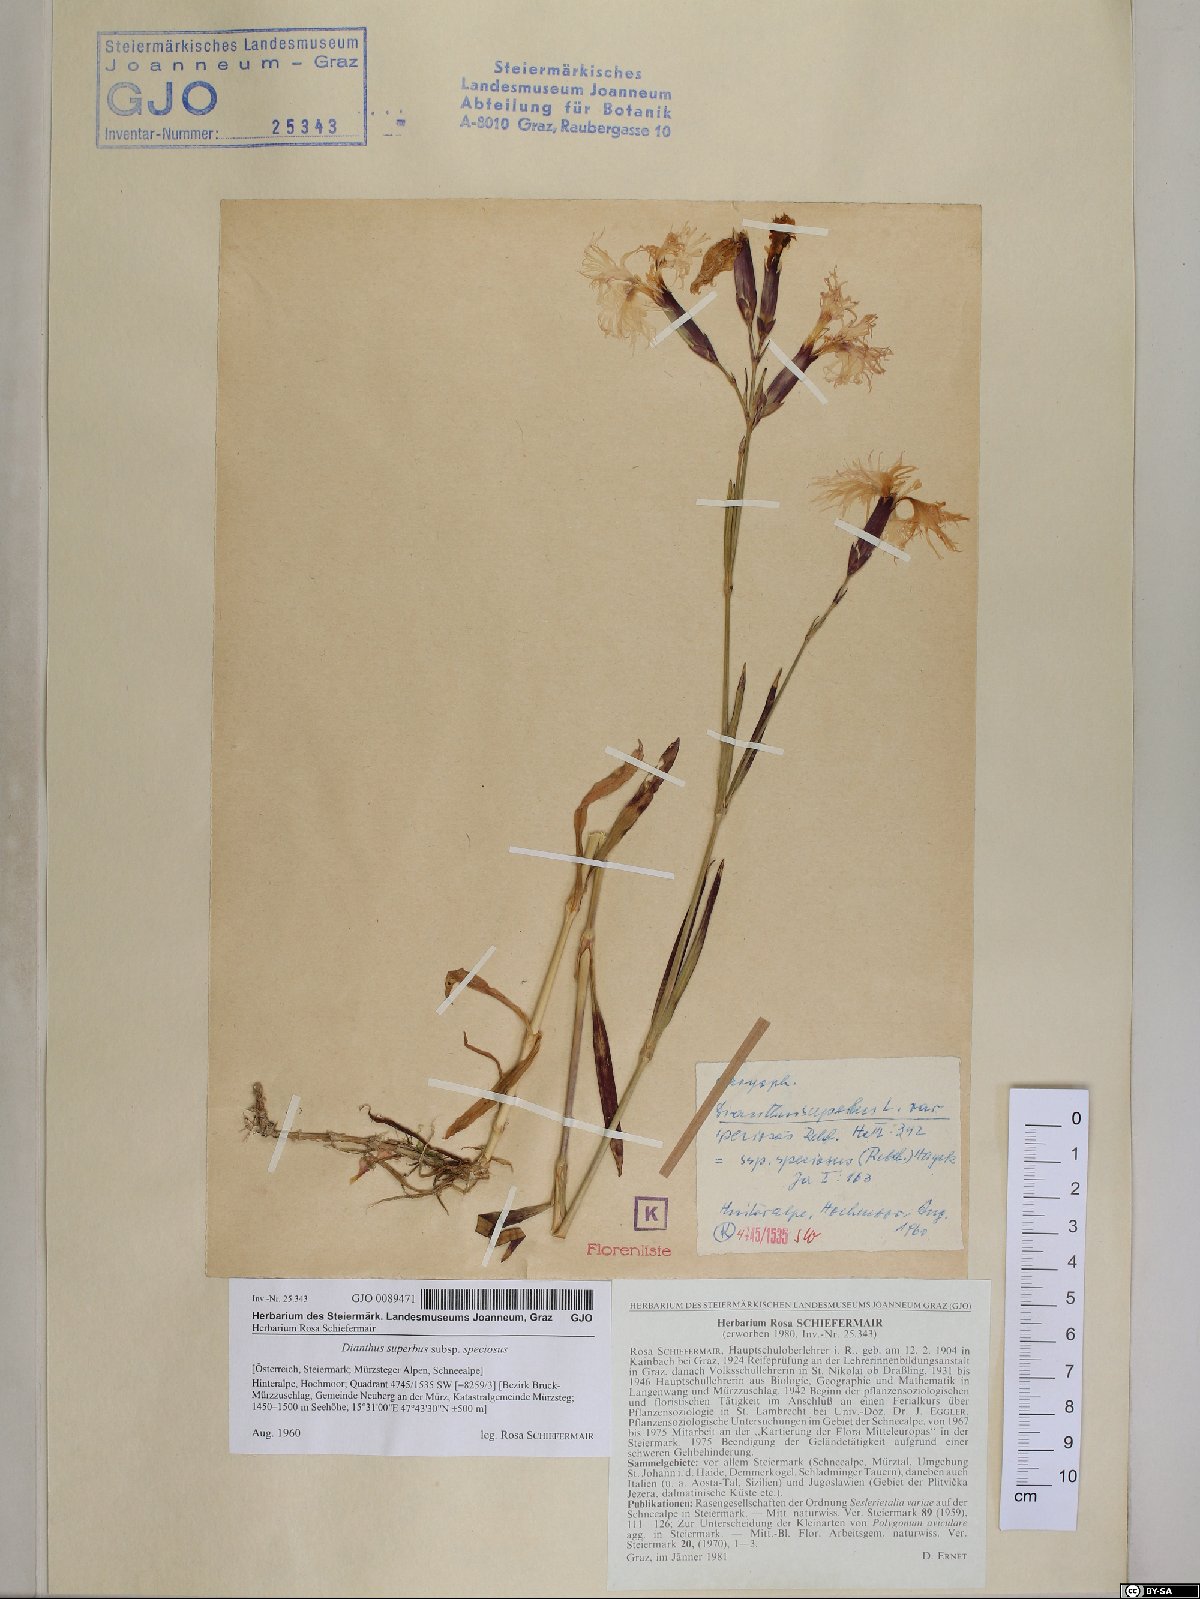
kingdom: Plantae
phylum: Tracheophyta
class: Magnoliopsida
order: Caryophyllales
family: Caryophyllaceae
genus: Dianthus
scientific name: Dianthus superbus
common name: Fringed pink
